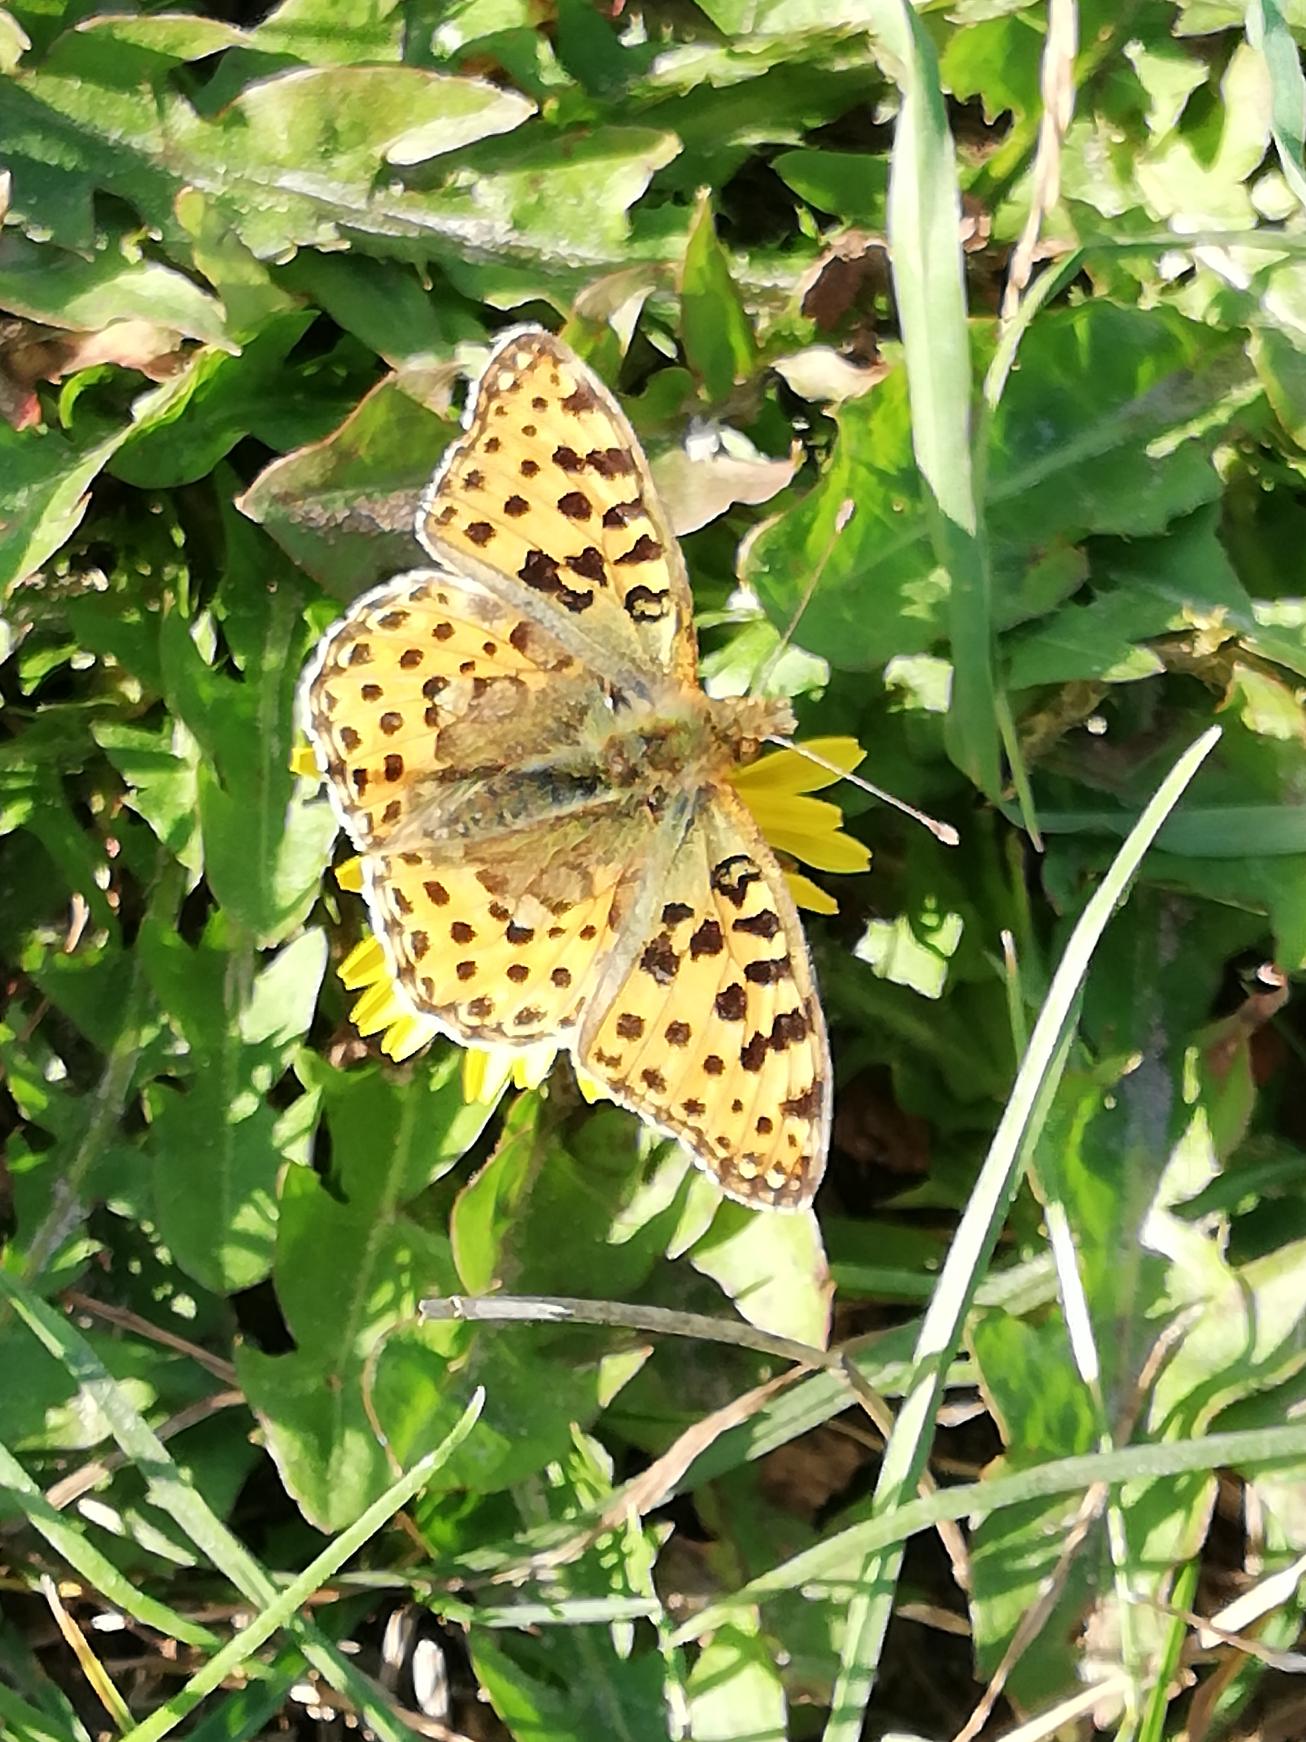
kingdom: Animalia
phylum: Arthropoda
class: Insecta
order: Lepidoptera
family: Nymphalidae
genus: Issoria
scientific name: Issoria lathonia
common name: Storplettet perlemorsommerfugl
